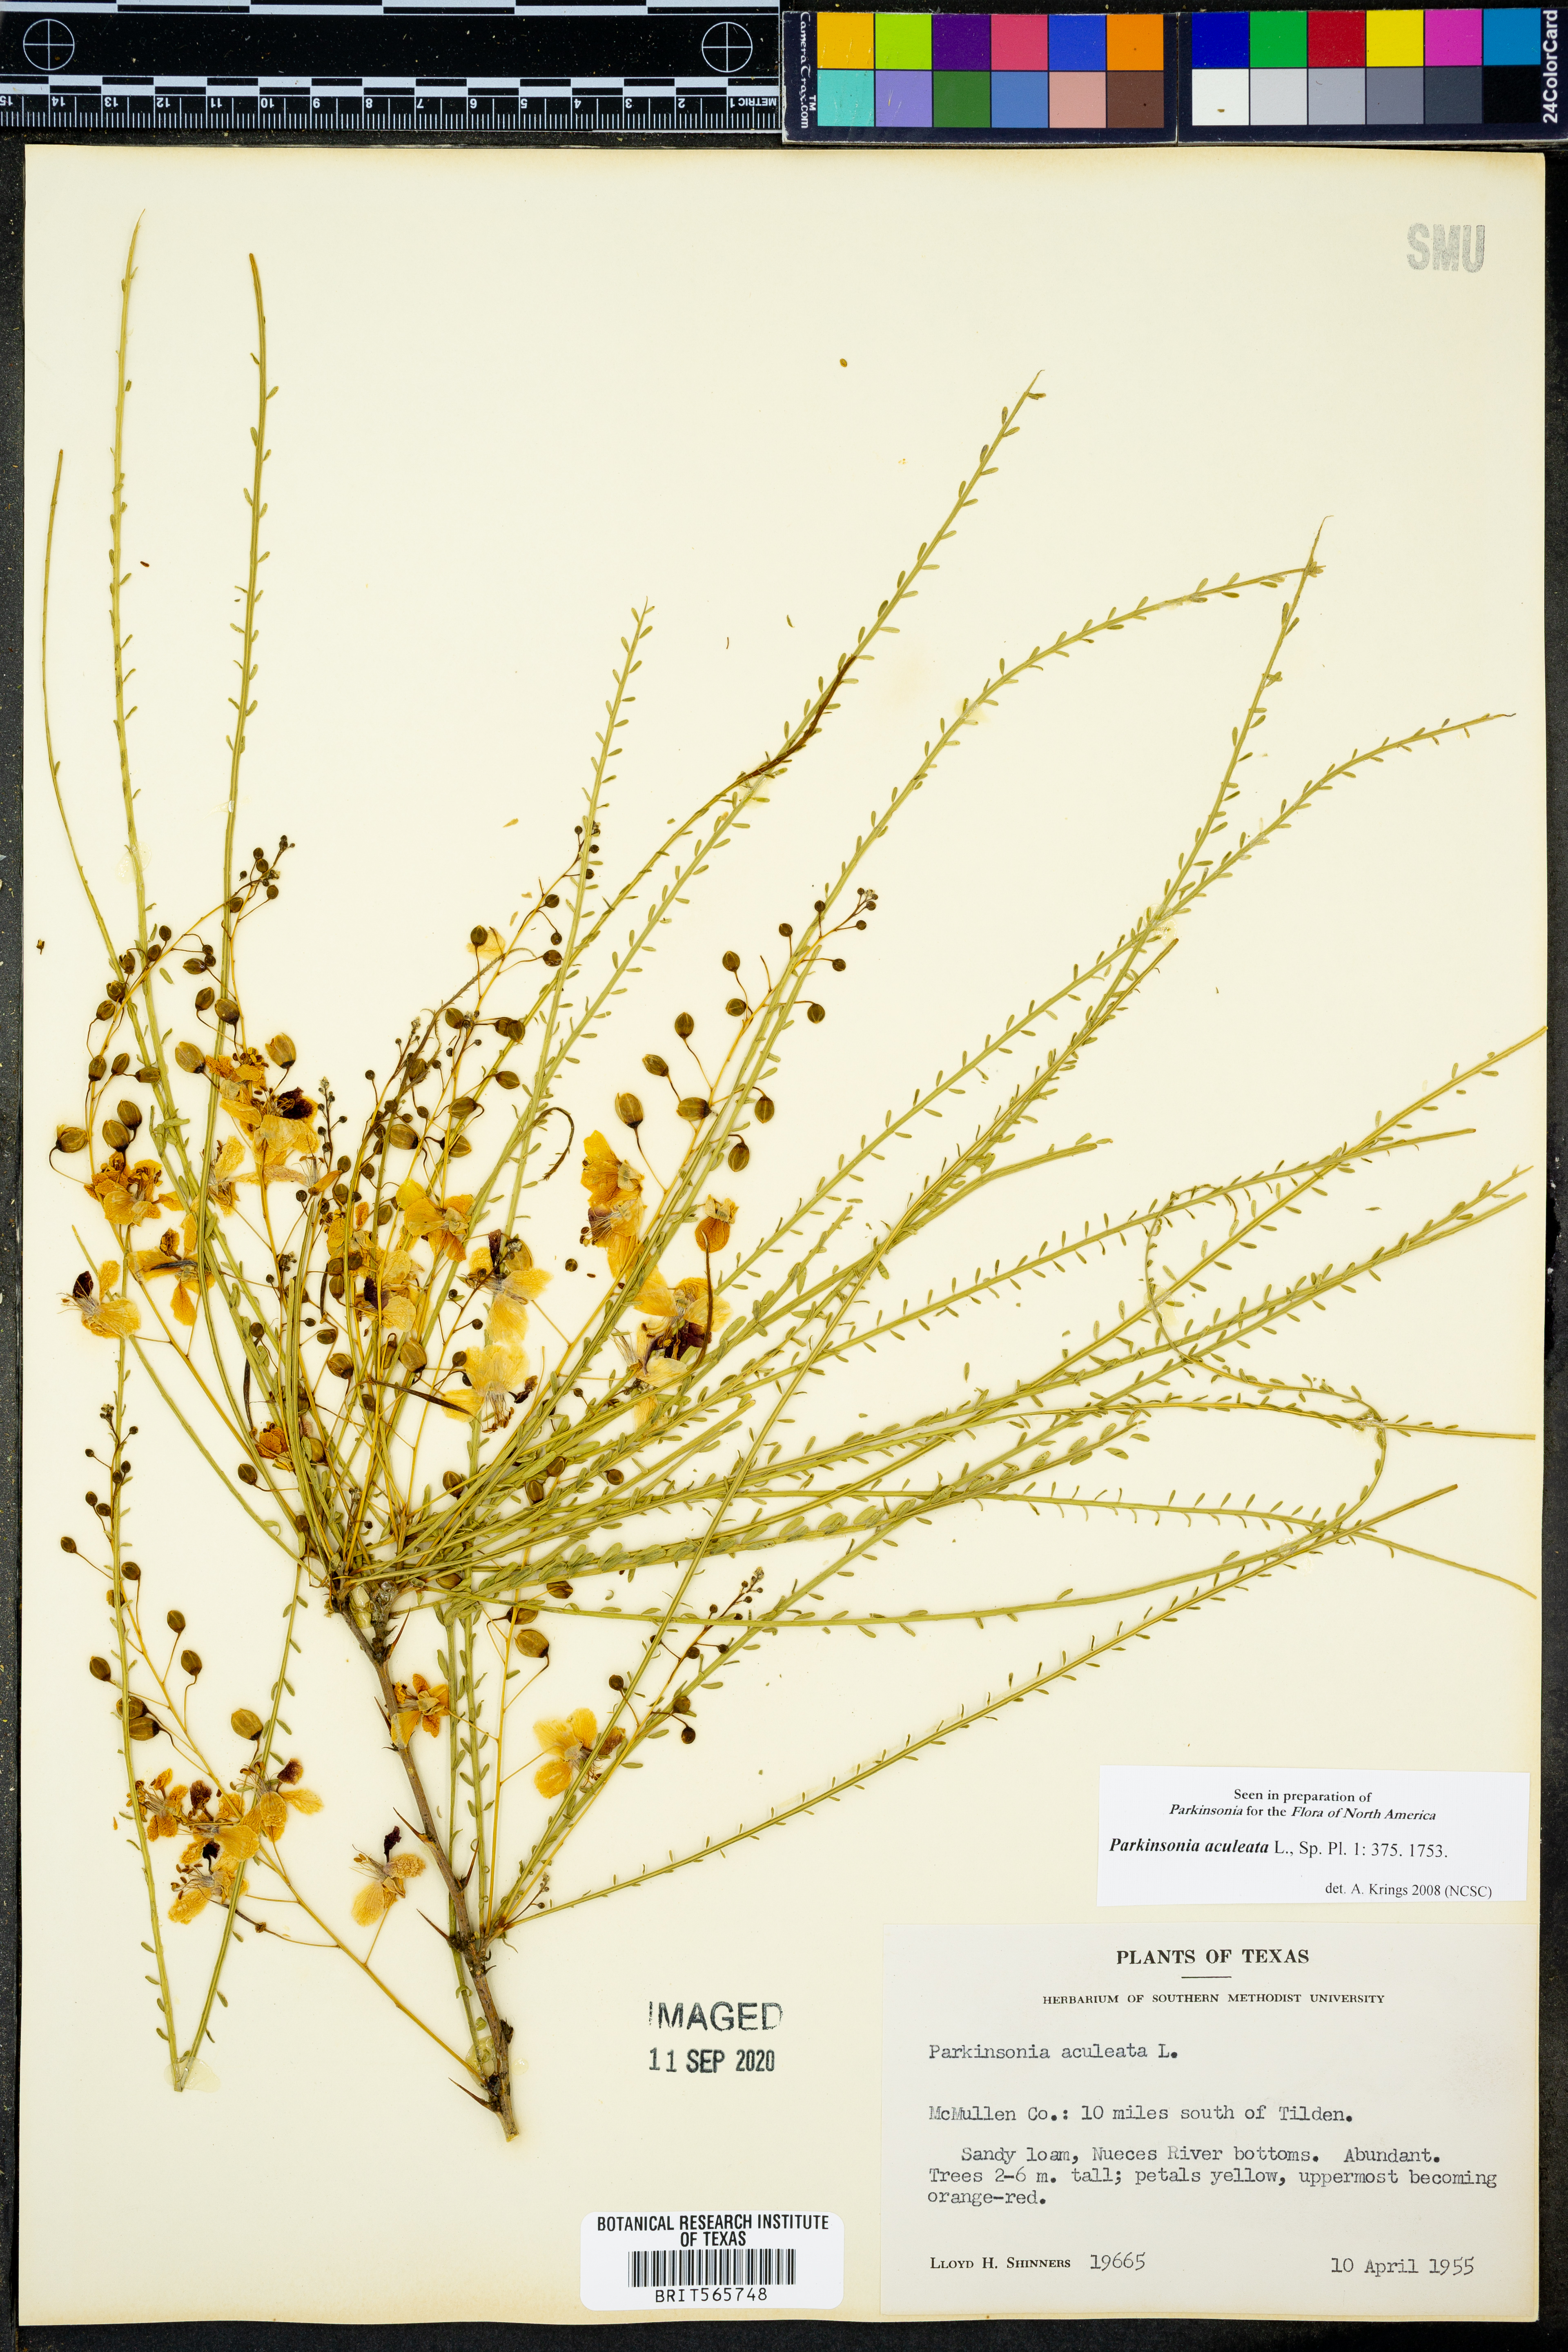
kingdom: Plantae
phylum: Tracheophyta
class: Magnoliopsida
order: Fabales
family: Fabaceae
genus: Parkinsonia
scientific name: Parkinsonia aculeata
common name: Jerusalem thorn
